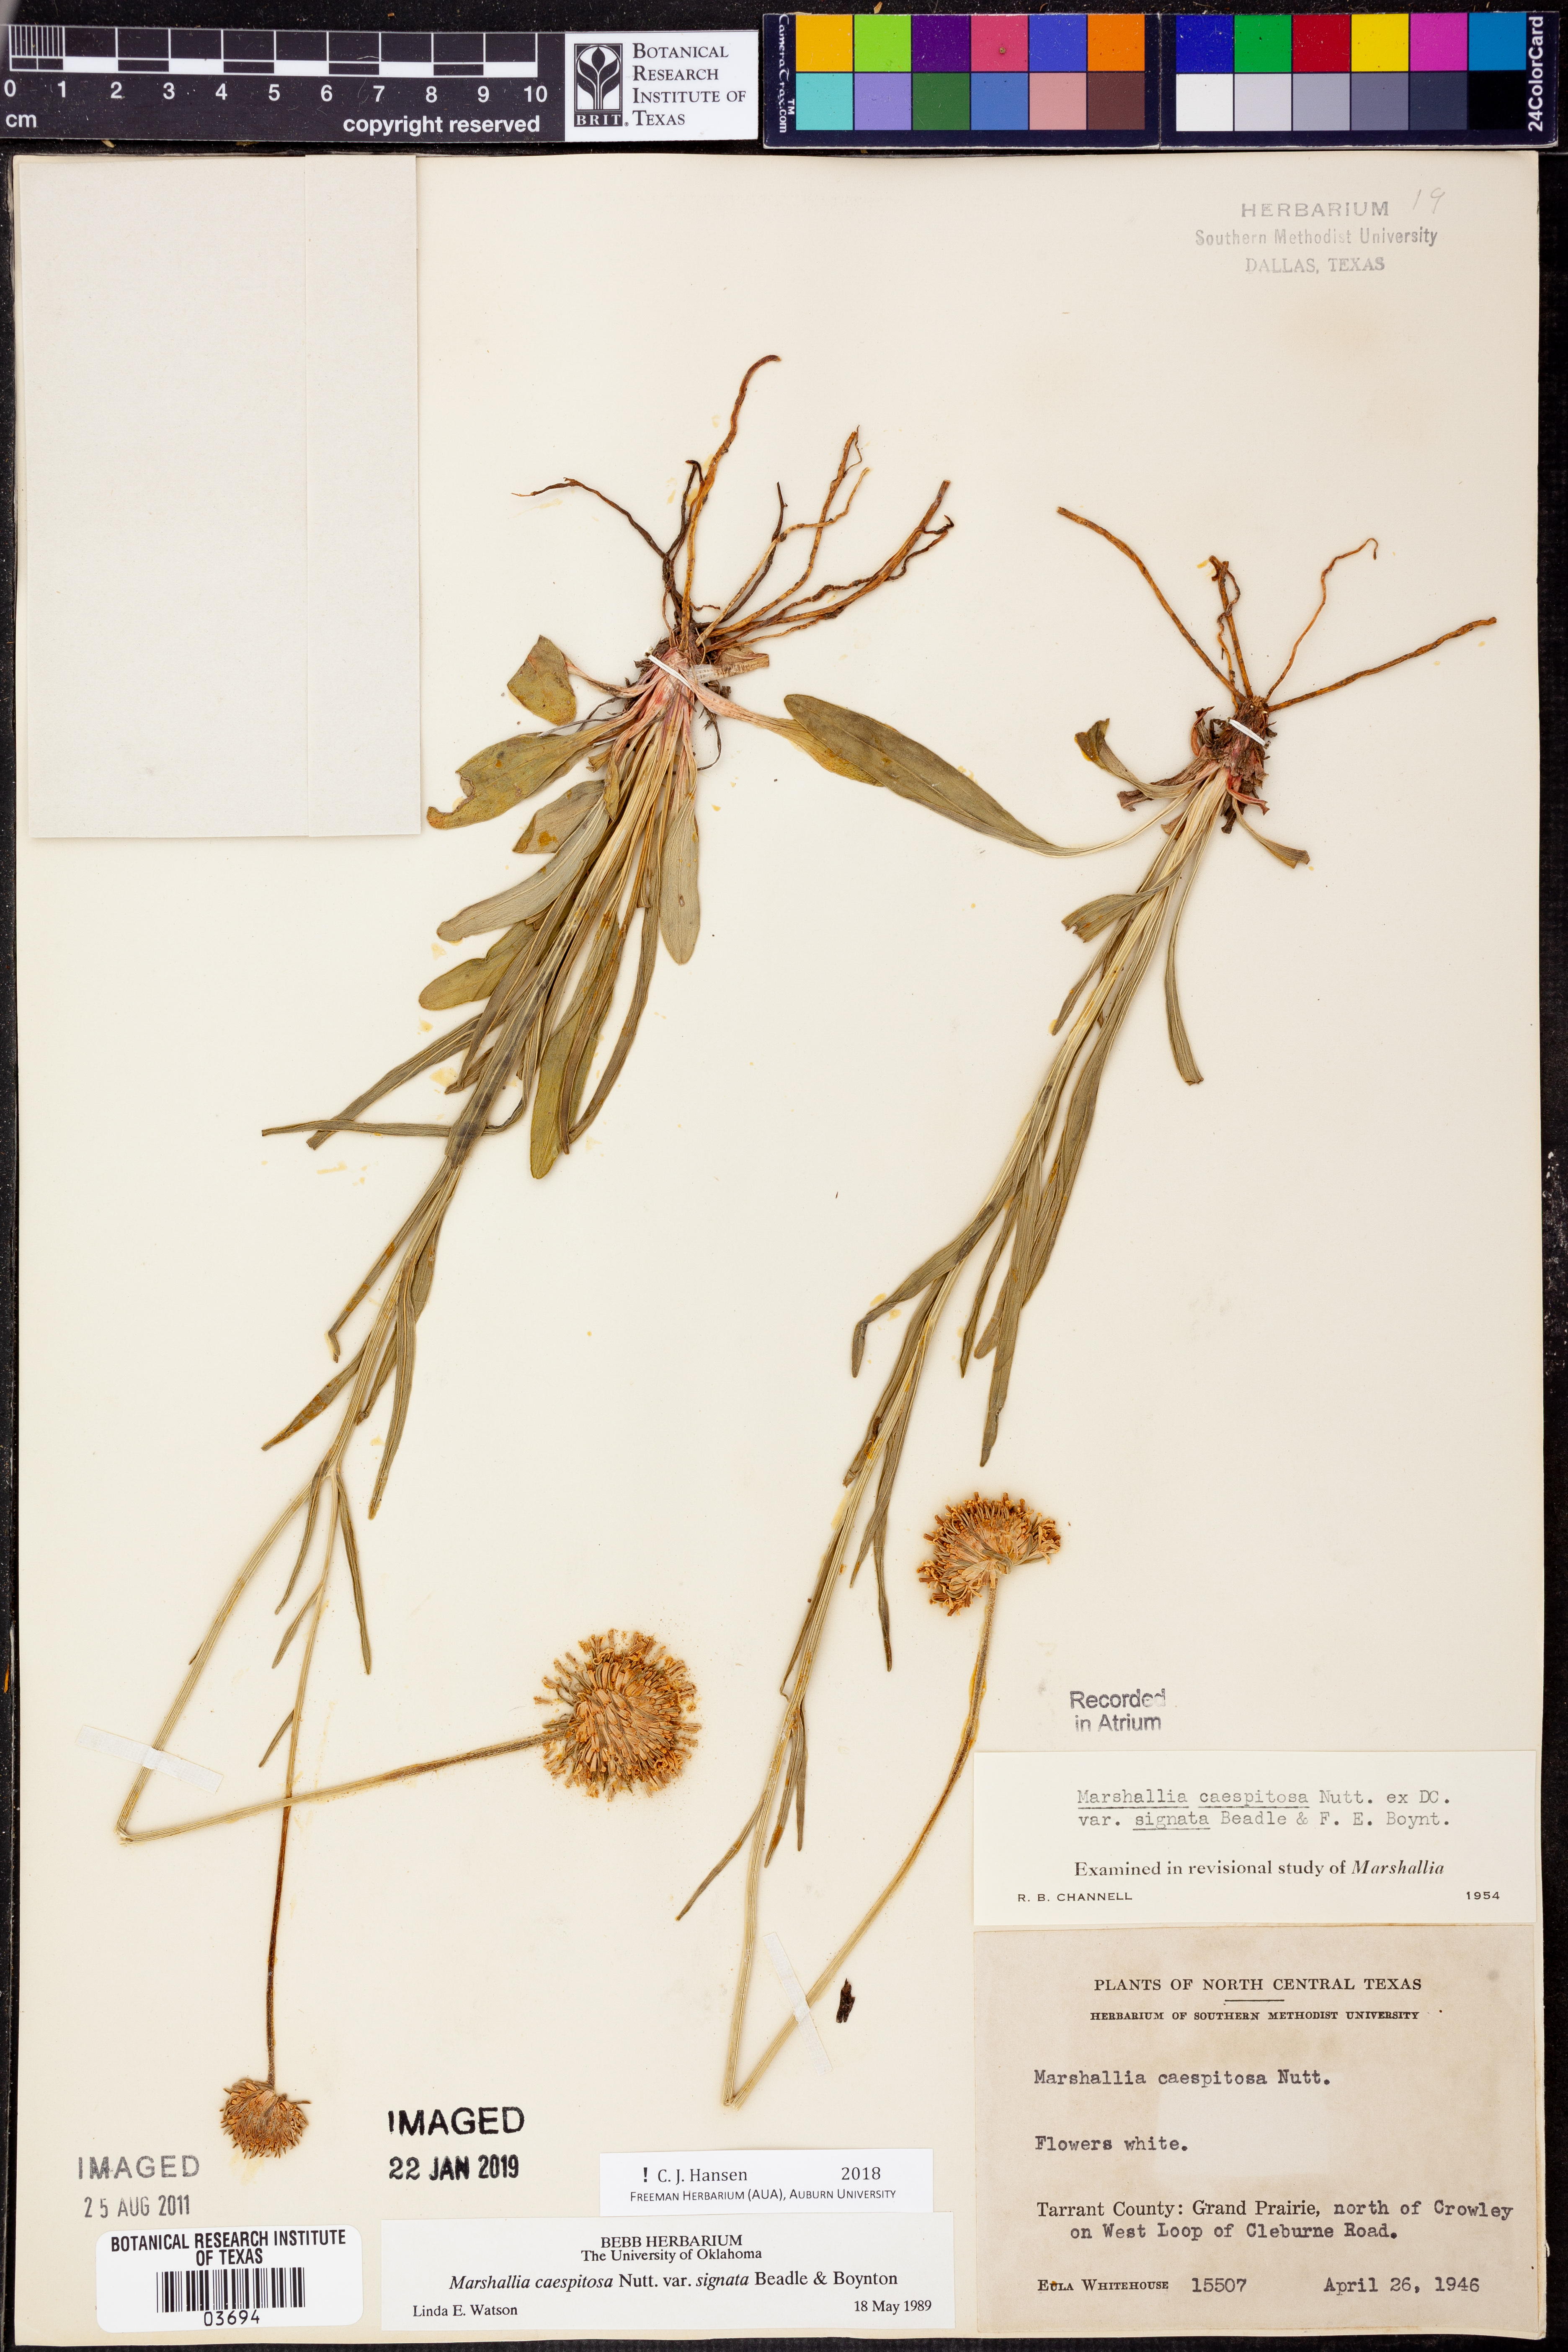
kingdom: Plantae
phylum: Tracheophyta
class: Magnoliopsida
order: Asterales
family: Asteraceae
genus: Marshallia
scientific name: Marshallia caespitosa
